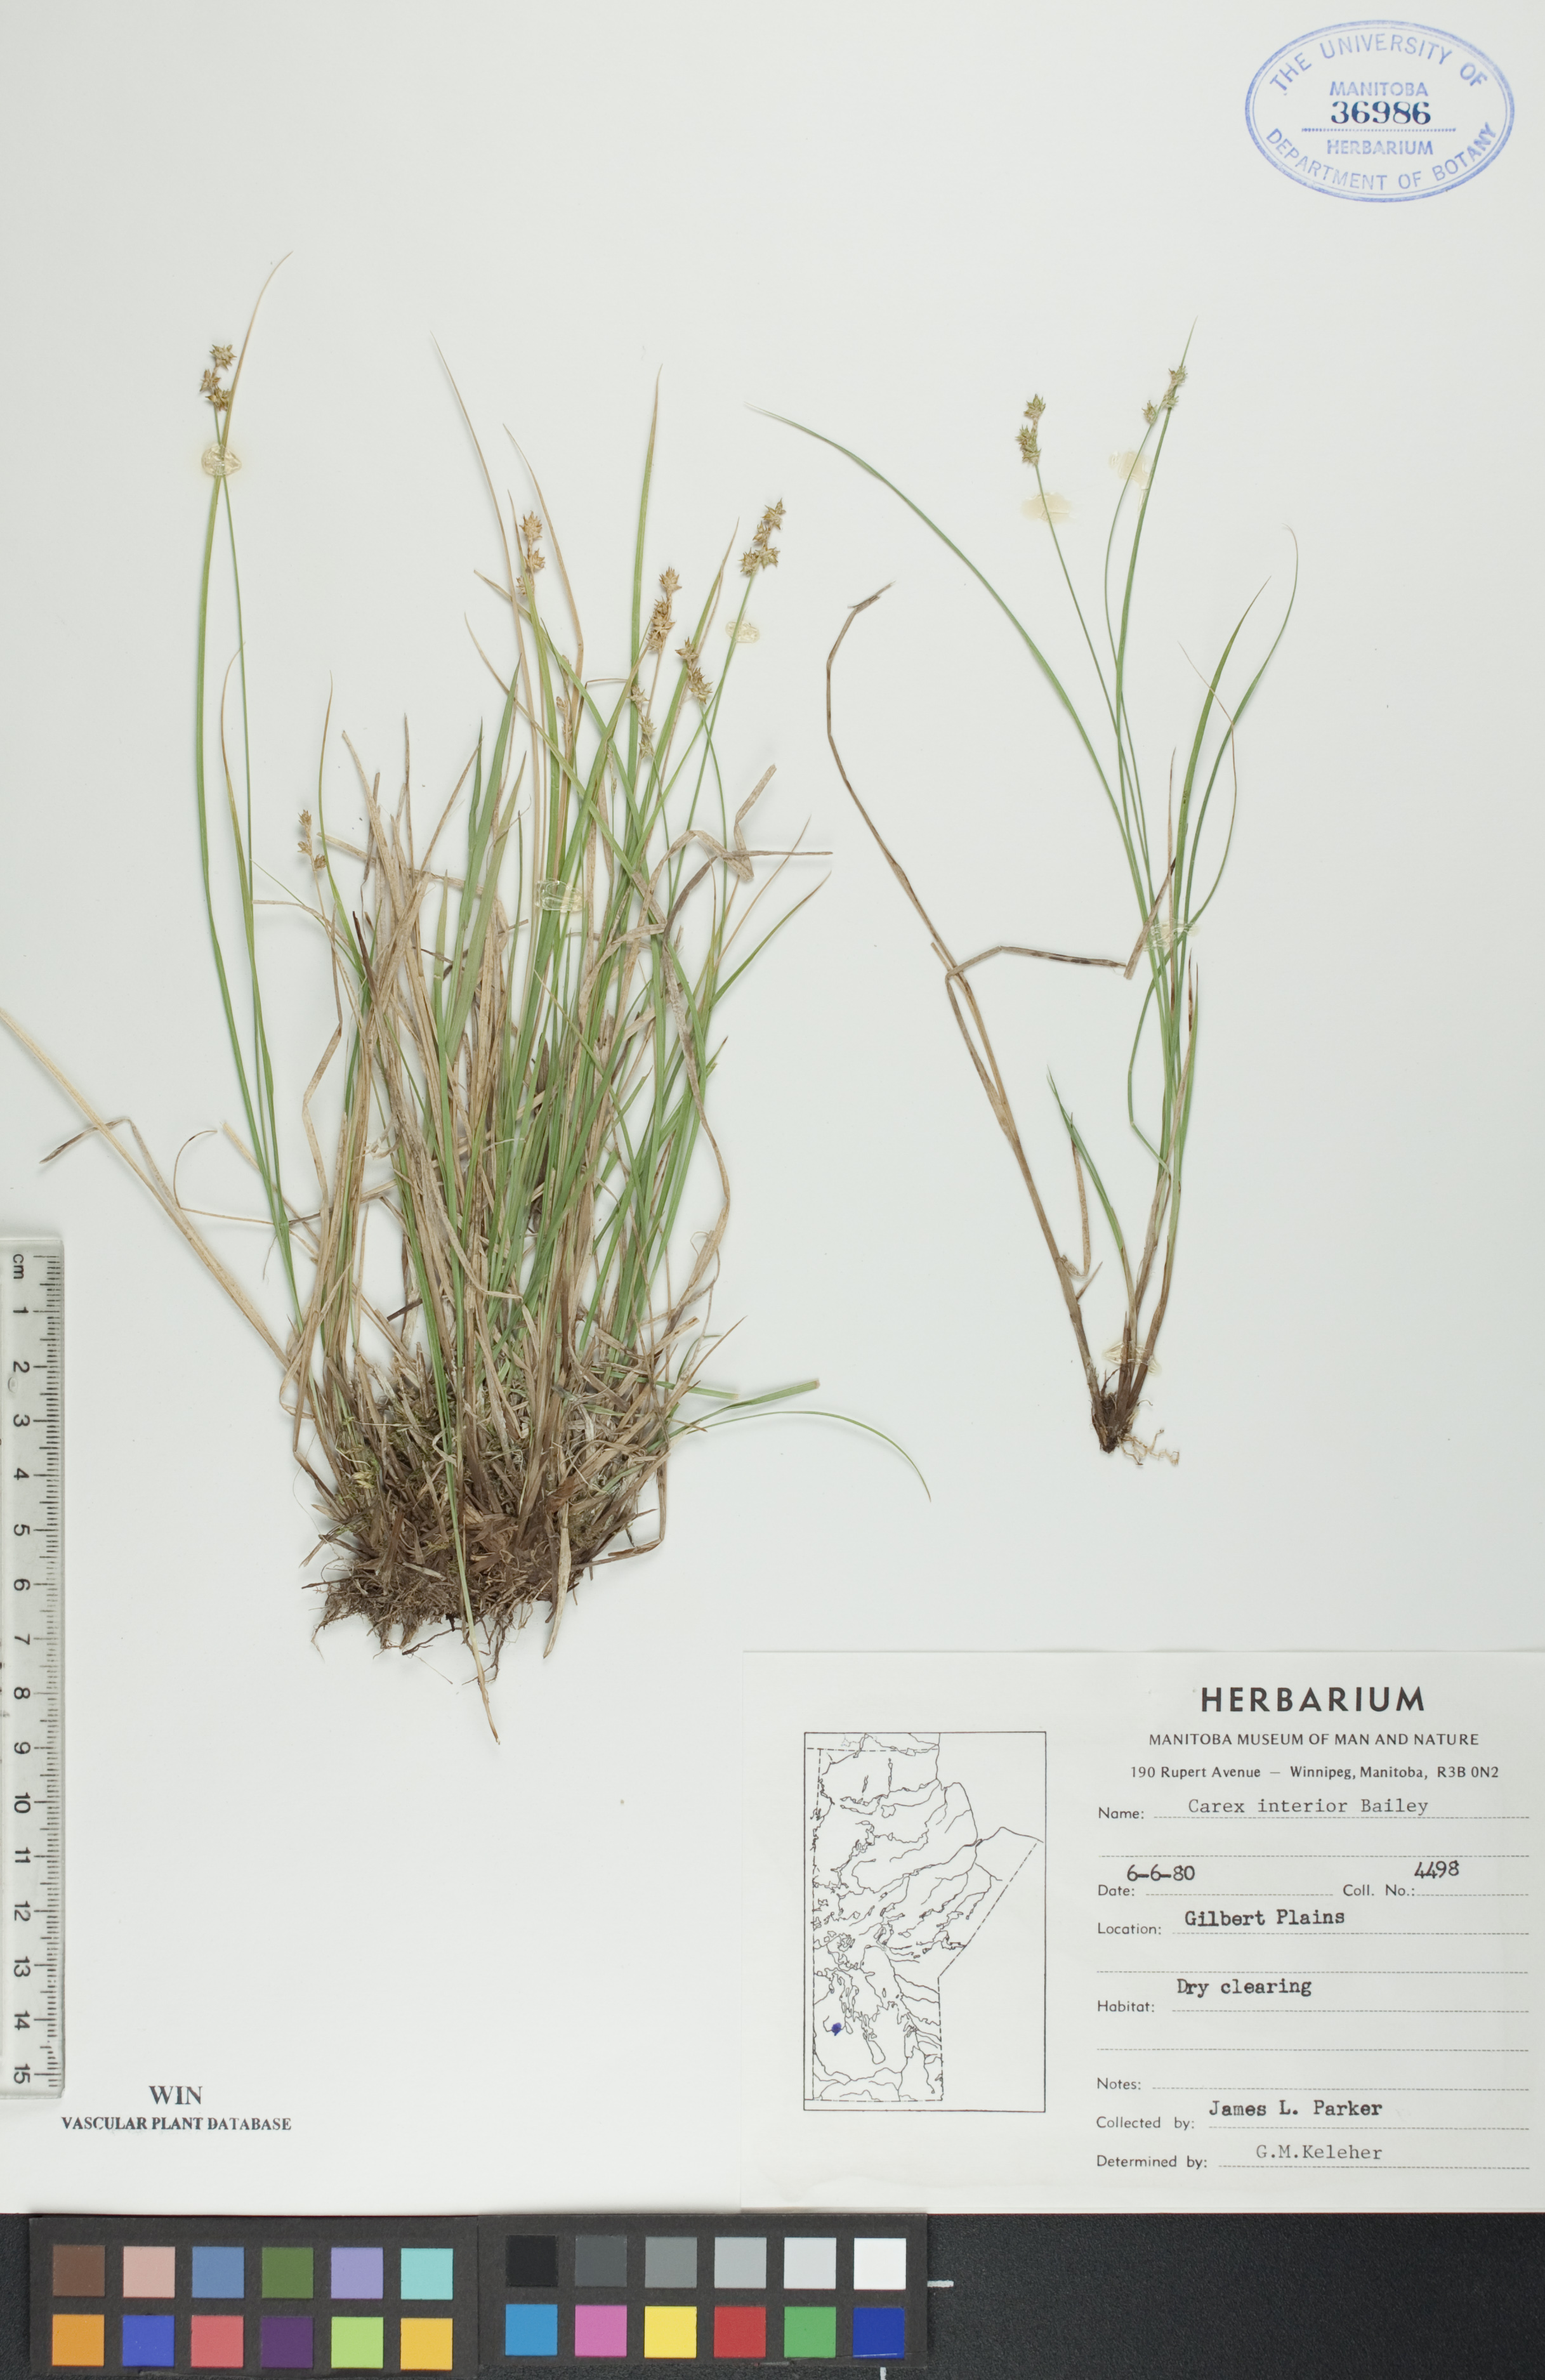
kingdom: Plantae
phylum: Tracheophyta
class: Liliopsida
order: Poales
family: Cyperaceae
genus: Carex
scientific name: Carex interior
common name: Inland sedge
